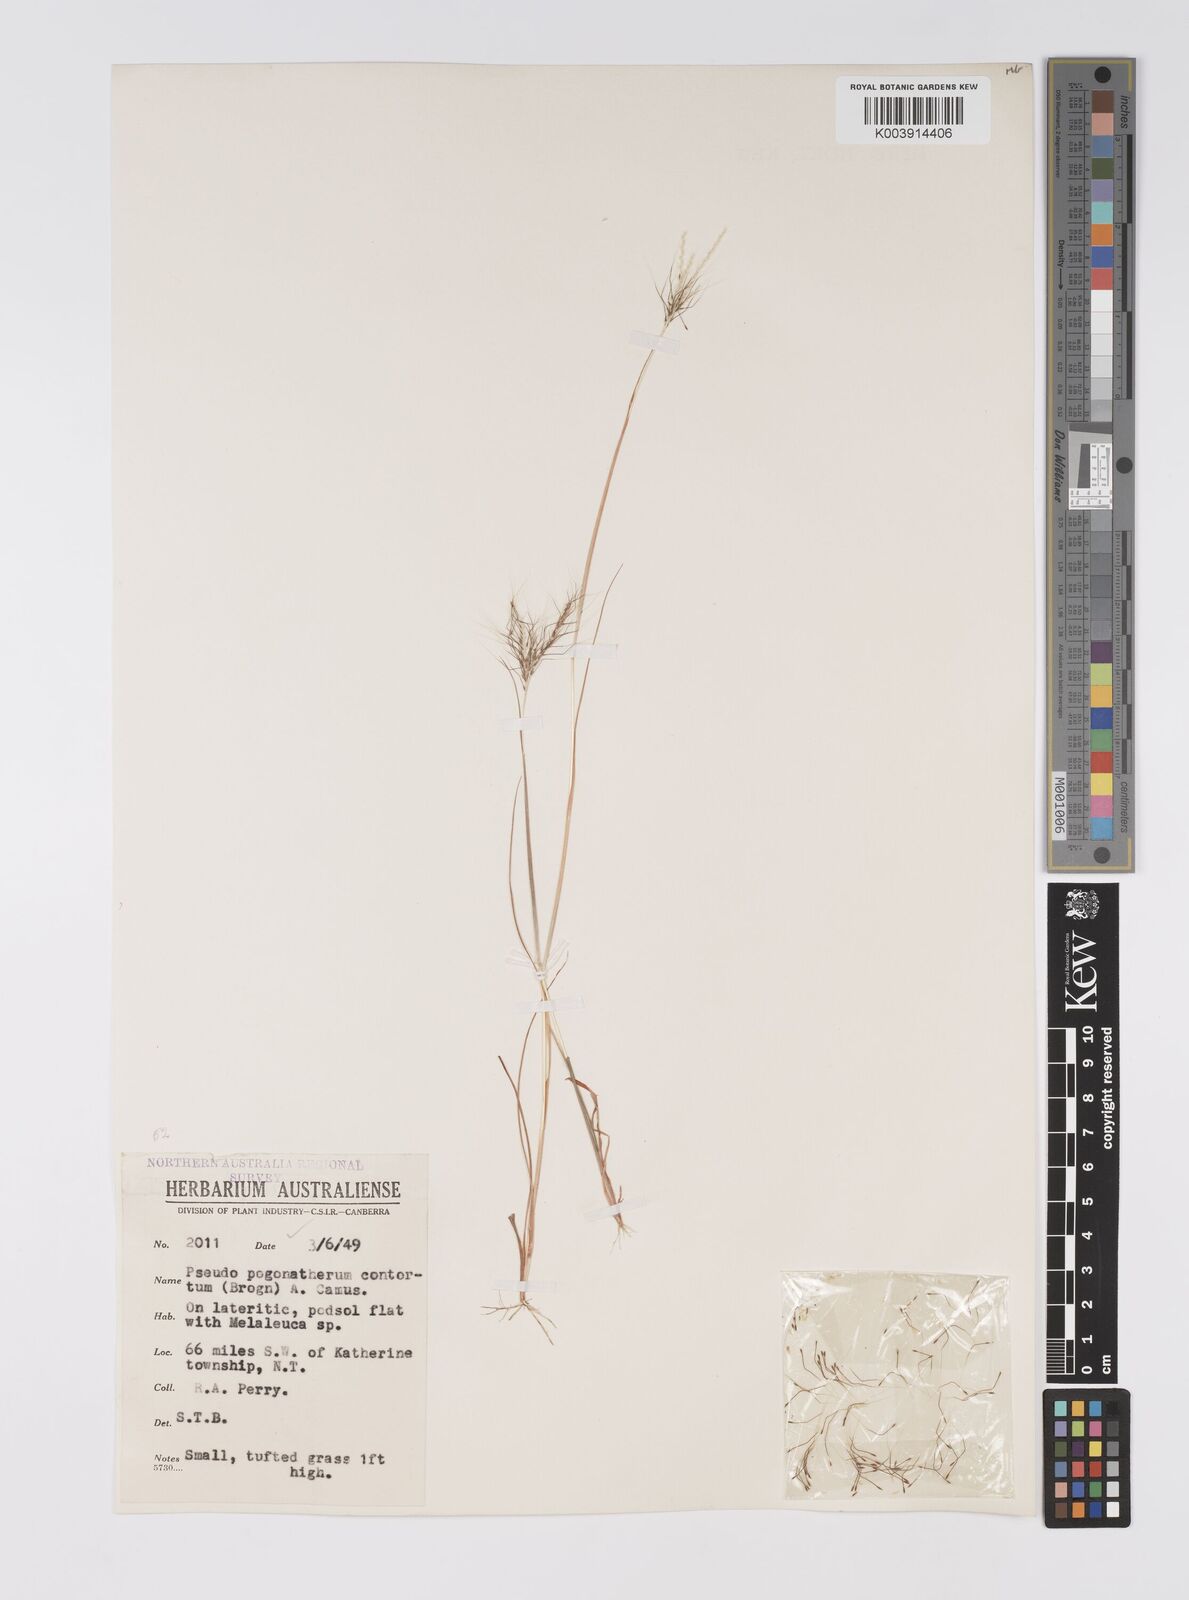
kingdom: Plantae
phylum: Tracheophyta
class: Liliopsida
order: Poales
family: Poaceae
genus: Pseudopogonatherum
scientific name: Pseudopogonatherum contortum
